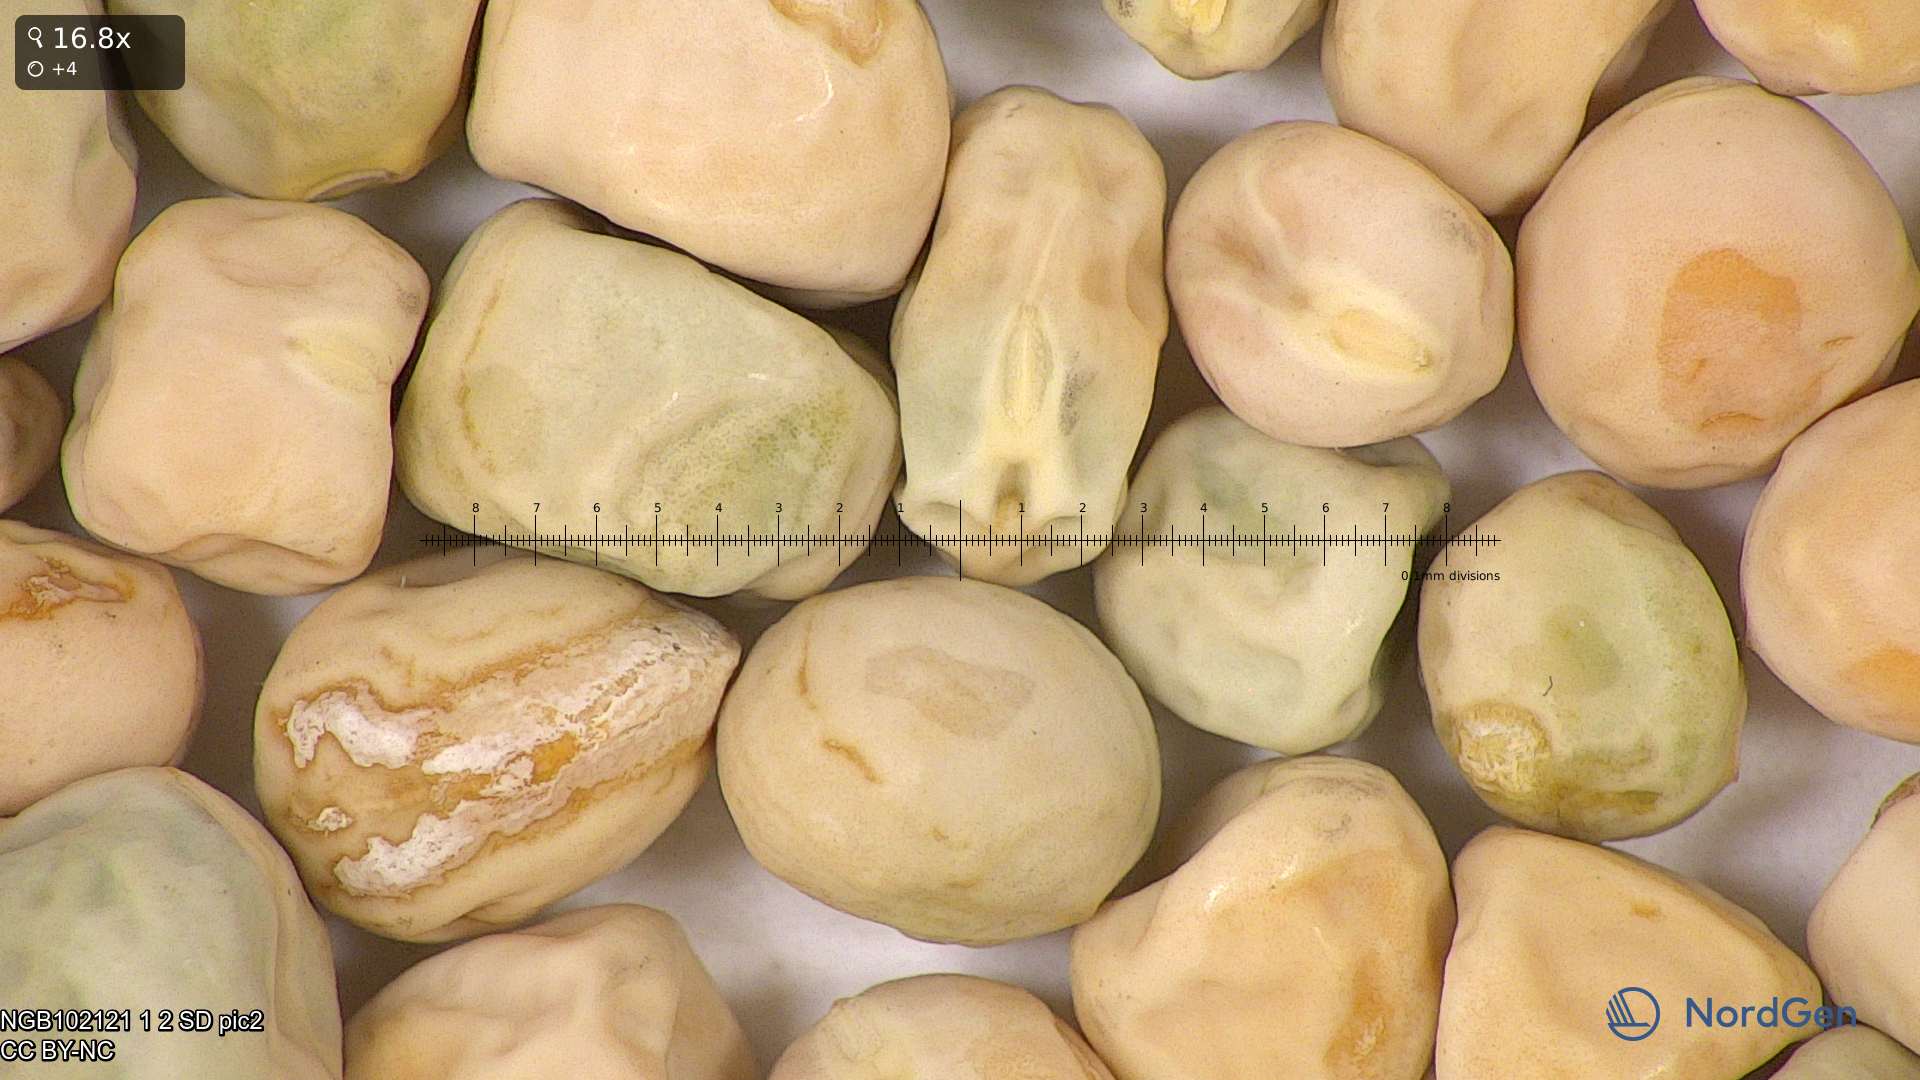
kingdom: Plantae
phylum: Tracheophyta
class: Magnoliopsida
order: Fabales
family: Fabaceae
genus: Lathyrus
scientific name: Lathyrus oleraceus
